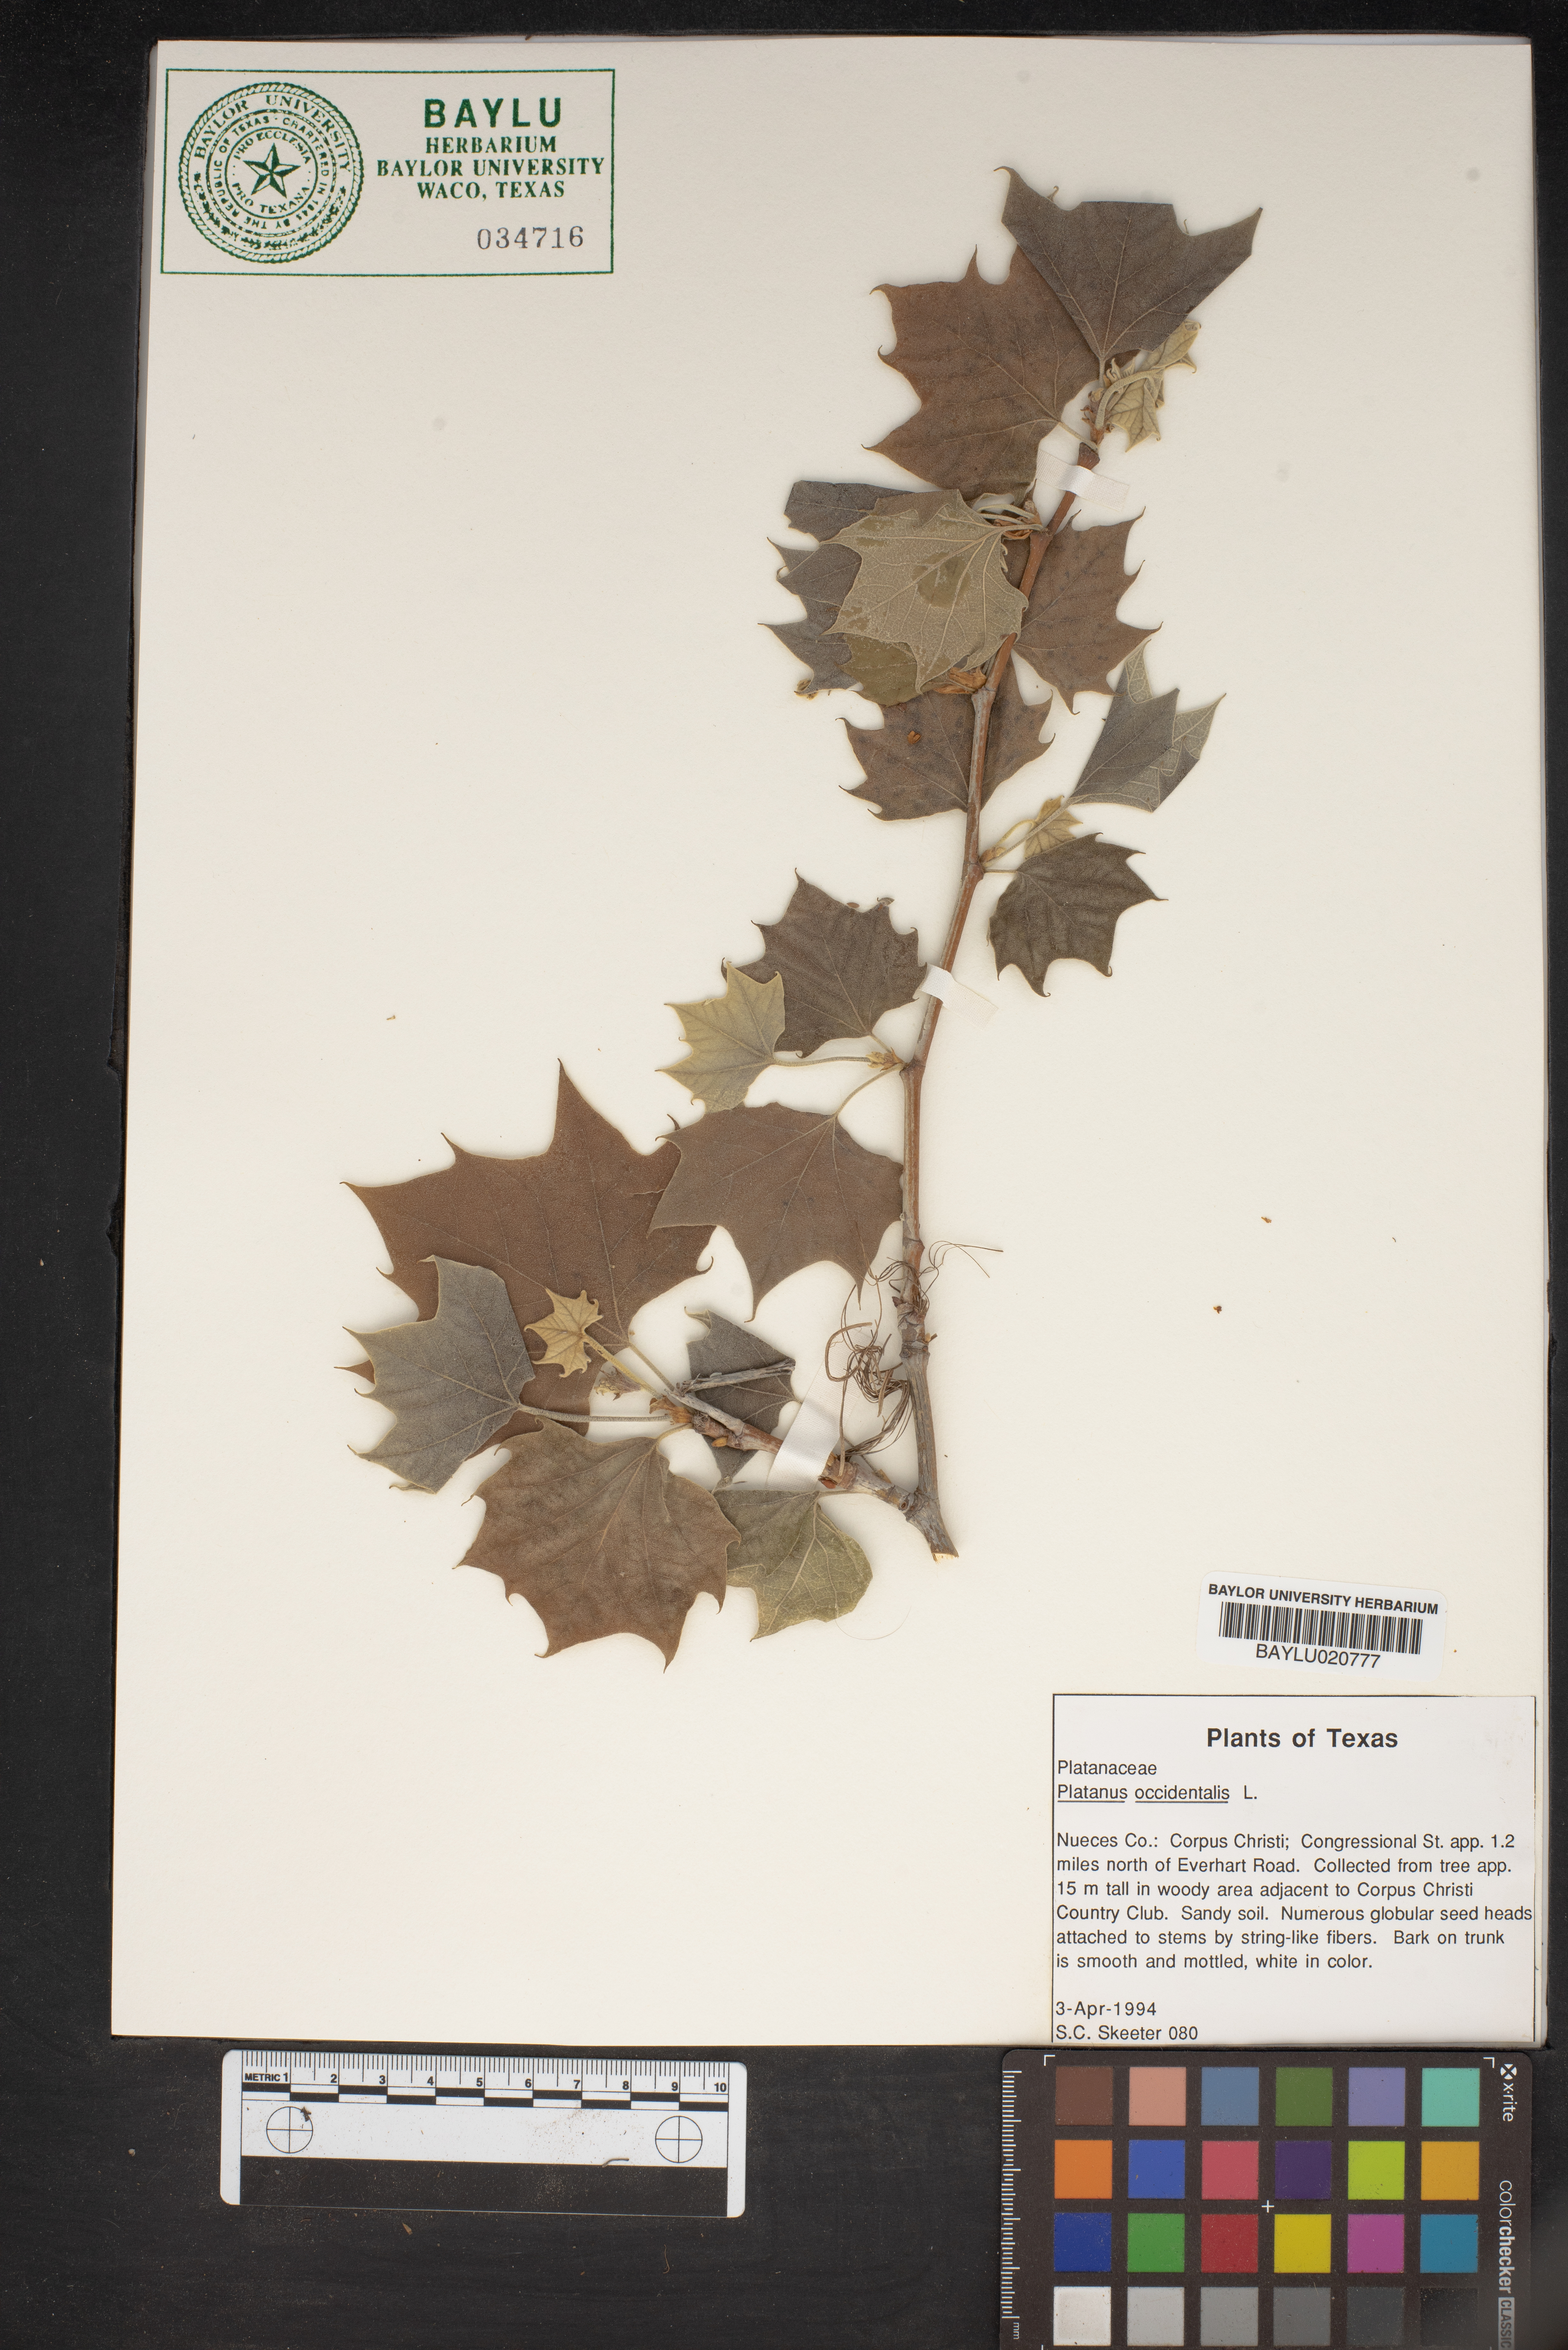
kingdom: Plantae
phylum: Tracheophyta
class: Magnoliopsida
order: Proteales
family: Platanaceae
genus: Platanus
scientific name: Platanus occidentalis
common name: American sycamore
